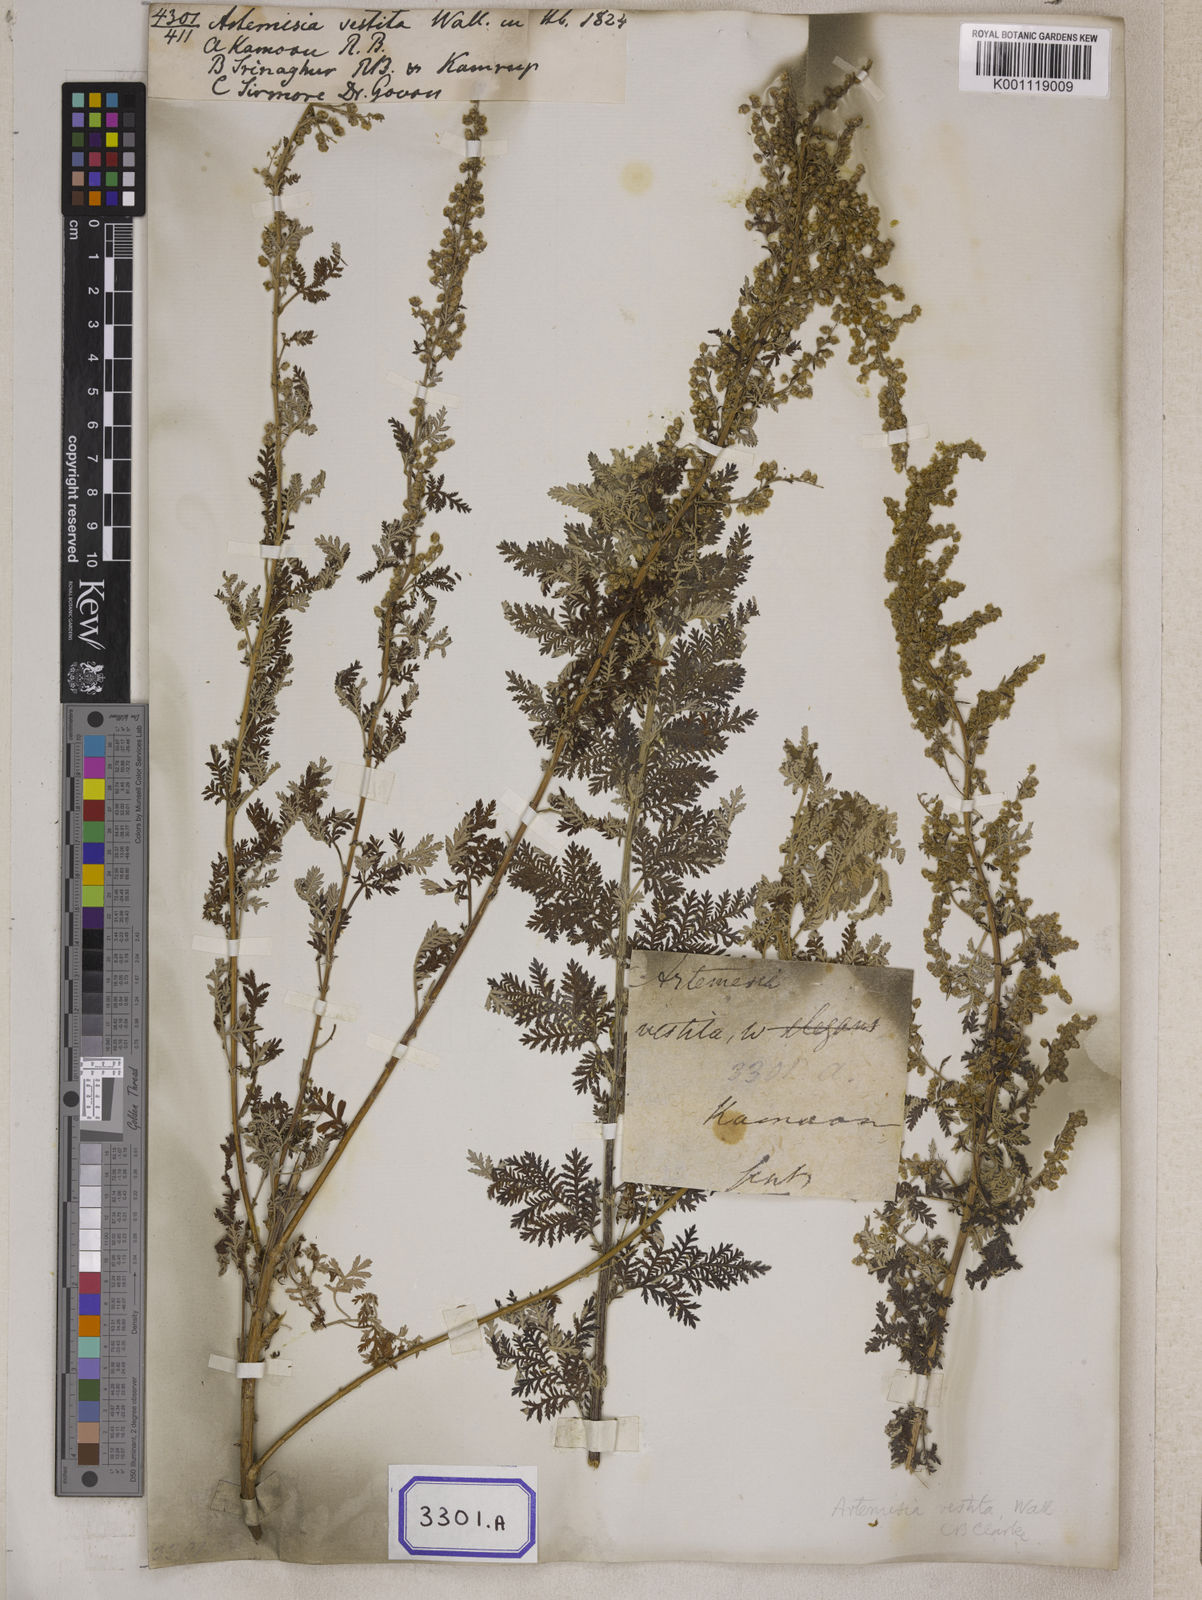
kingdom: Plantae
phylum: Tracheophyta
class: Magnoliopsida
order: Asterales
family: Asteraceae
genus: Artemisia
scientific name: Artemisia vestita
